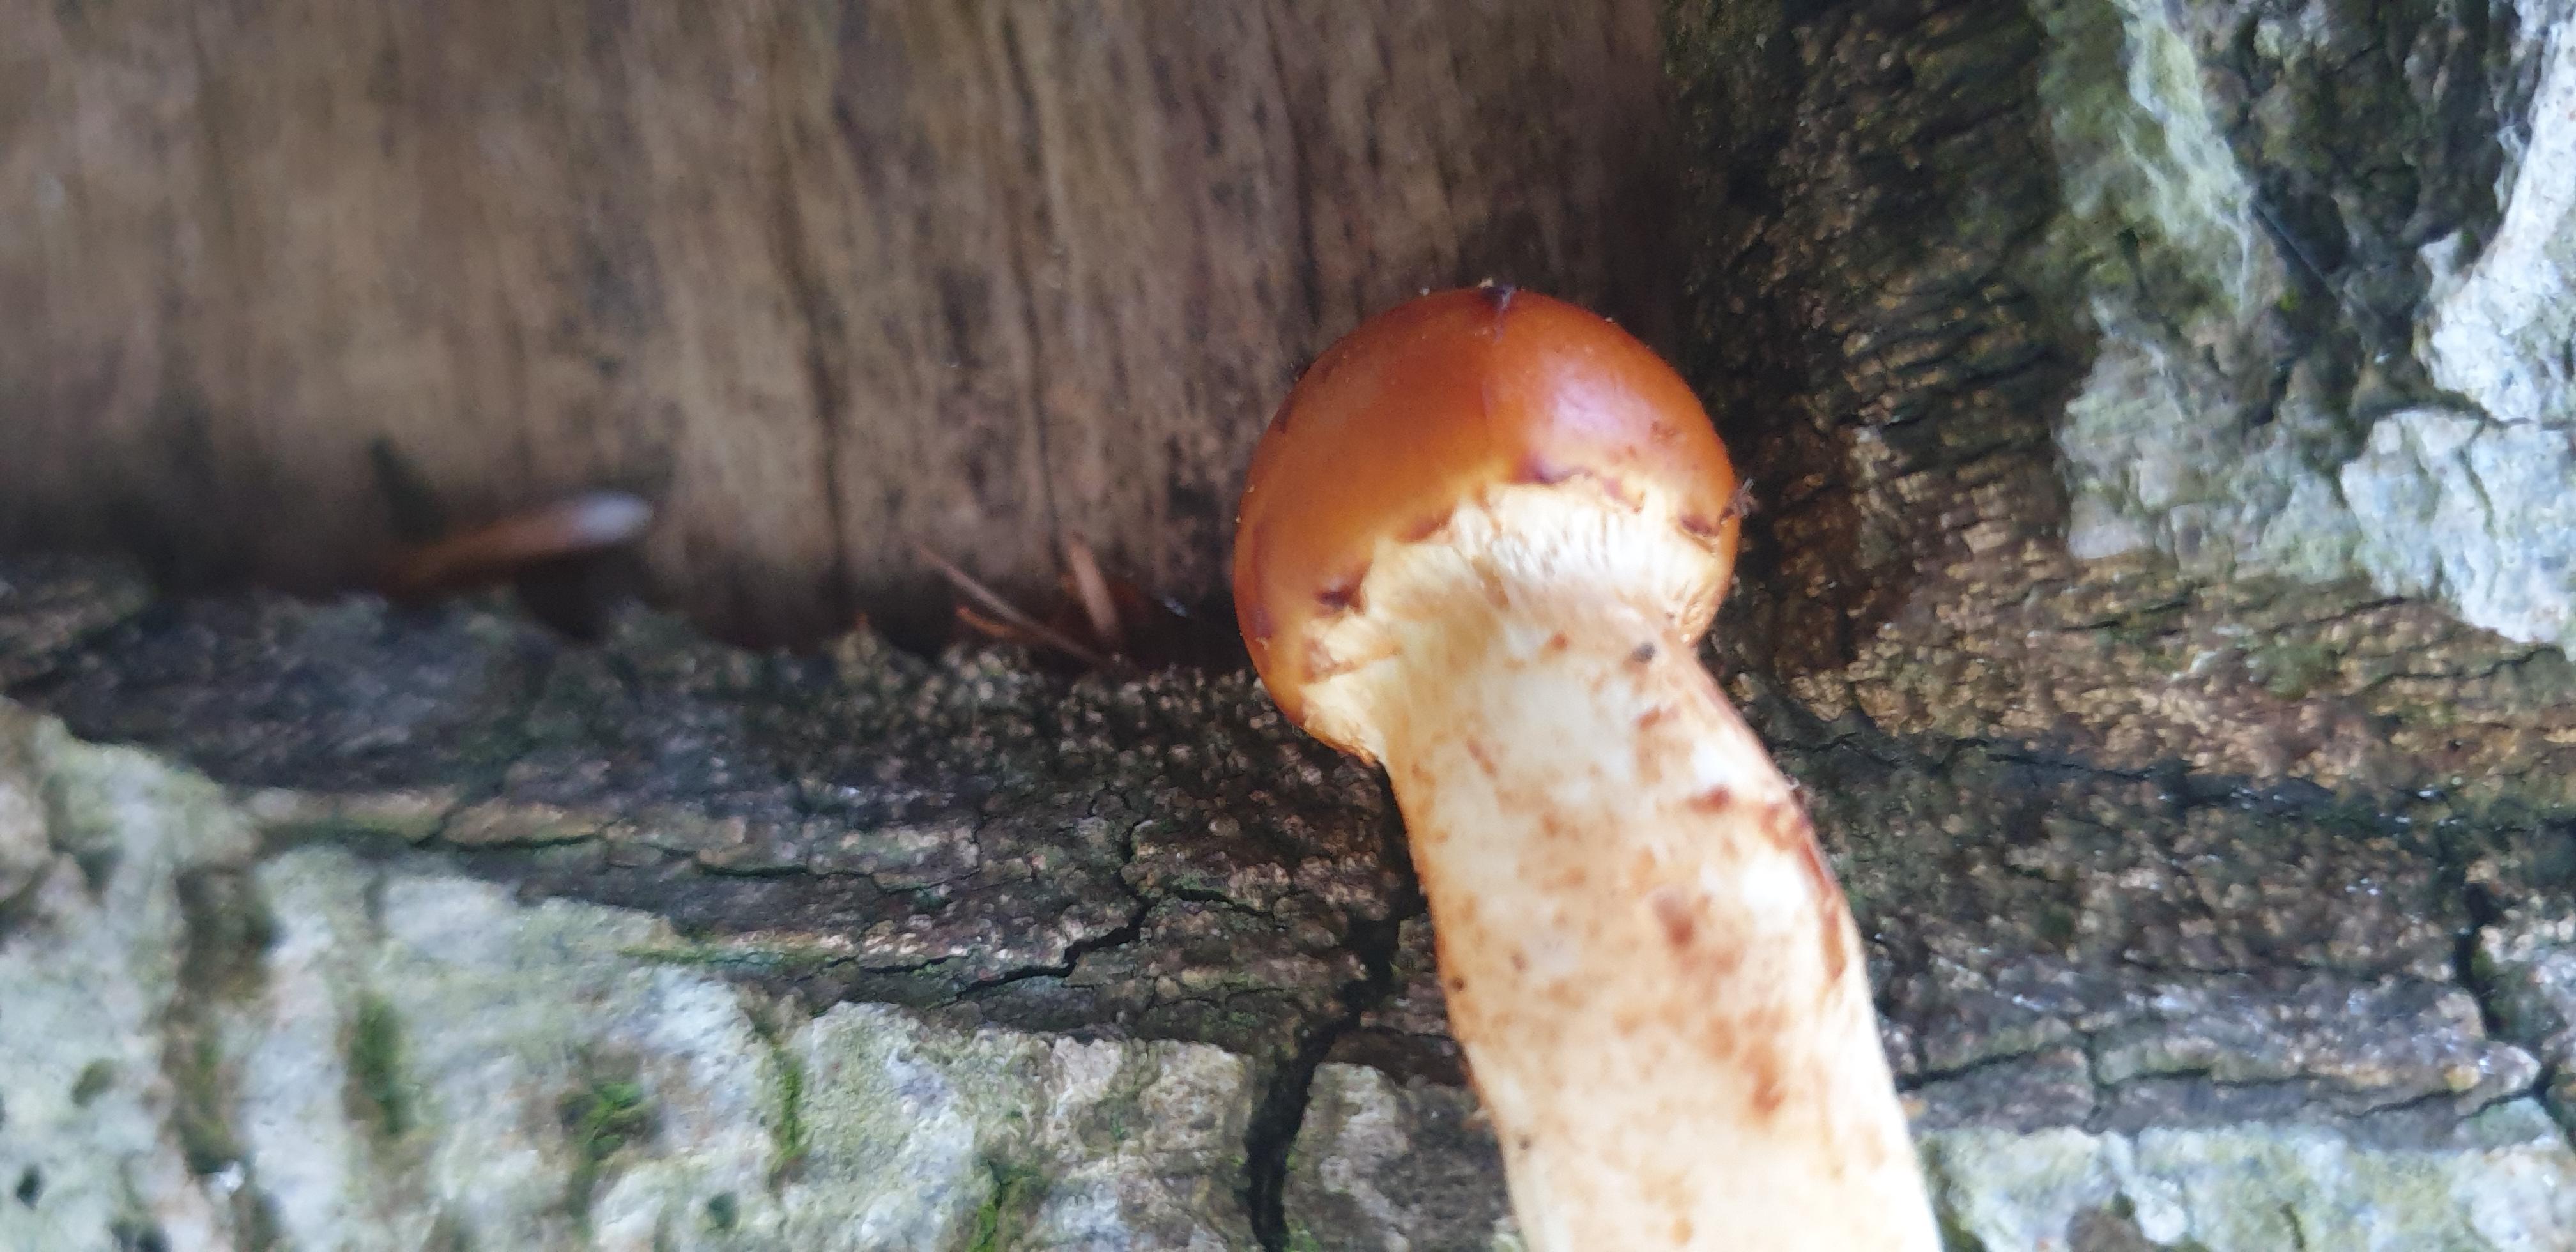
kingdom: Fungi
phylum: Basidiomycota
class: Agaricomycetes
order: Agaricales
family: Strophariaceae
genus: Pholiota
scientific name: Pholiota adiposa
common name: højtsiddende skælhat
